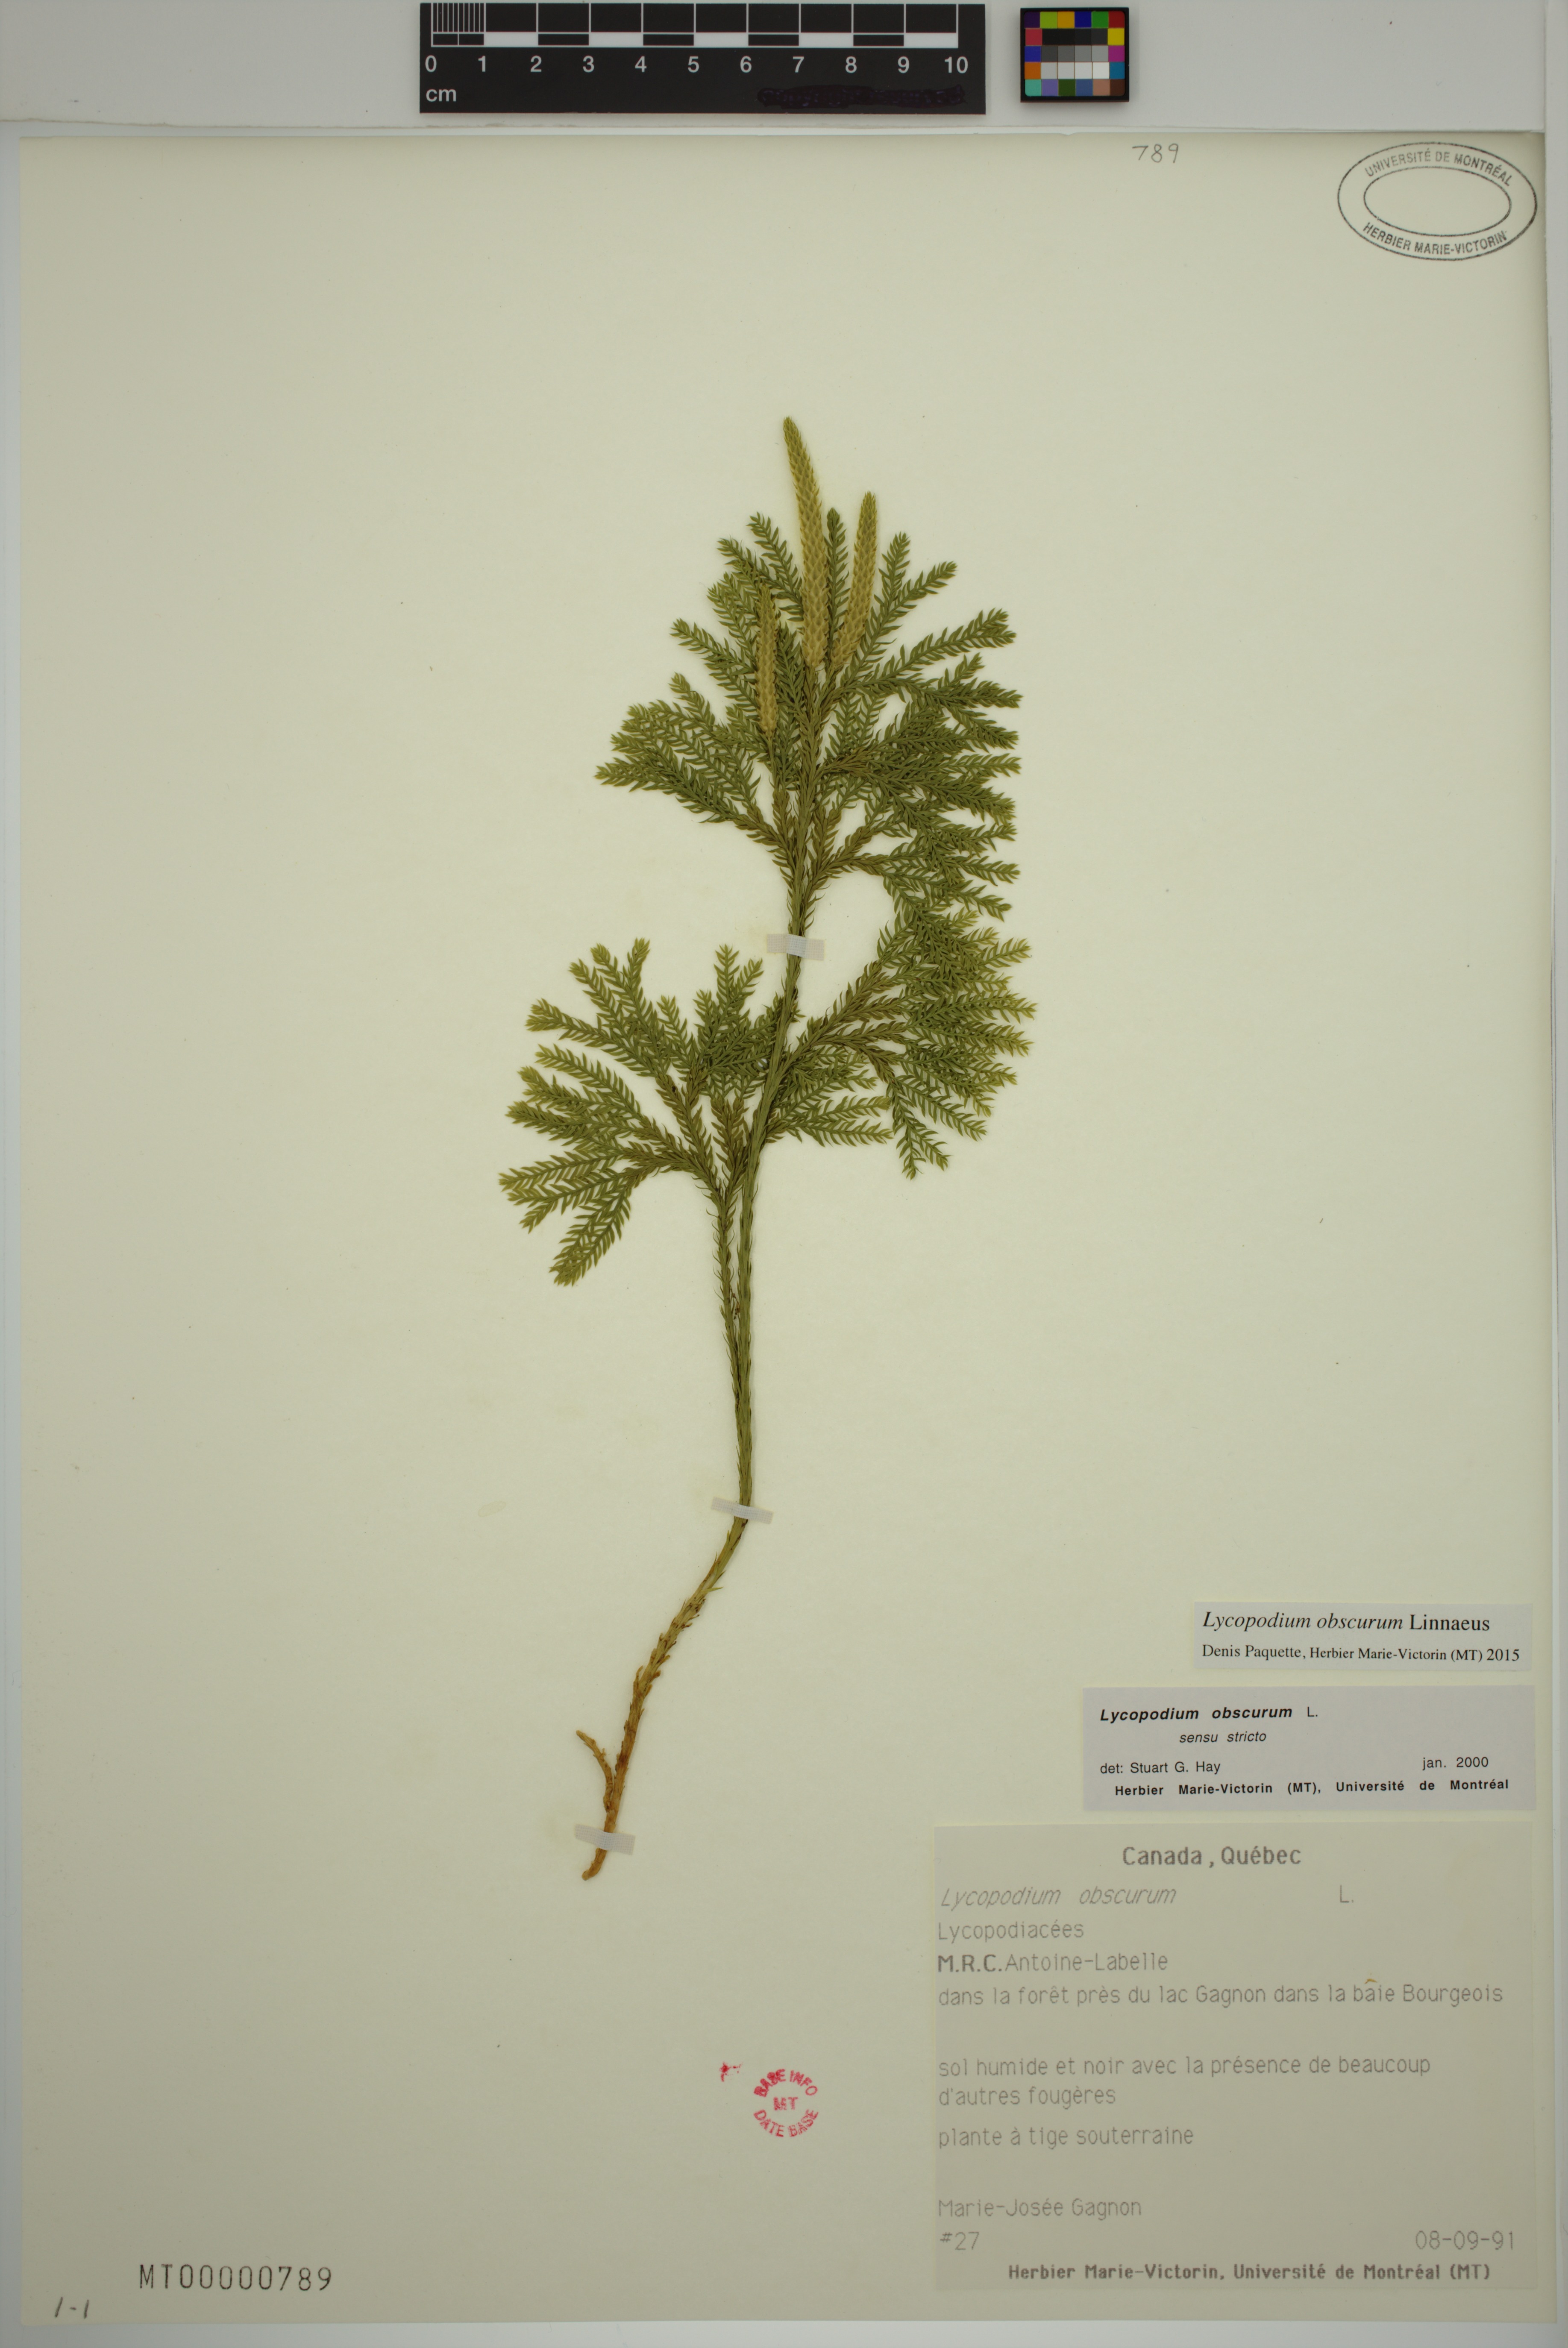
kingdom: Plantae
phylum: Tracheophyta
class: Lycopodiopsida
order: Lycopodiales
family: Lycopodiaceae
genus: Dendrolycopodium
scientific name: Dendrolycopodium obscurum
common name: Common ground-pine
